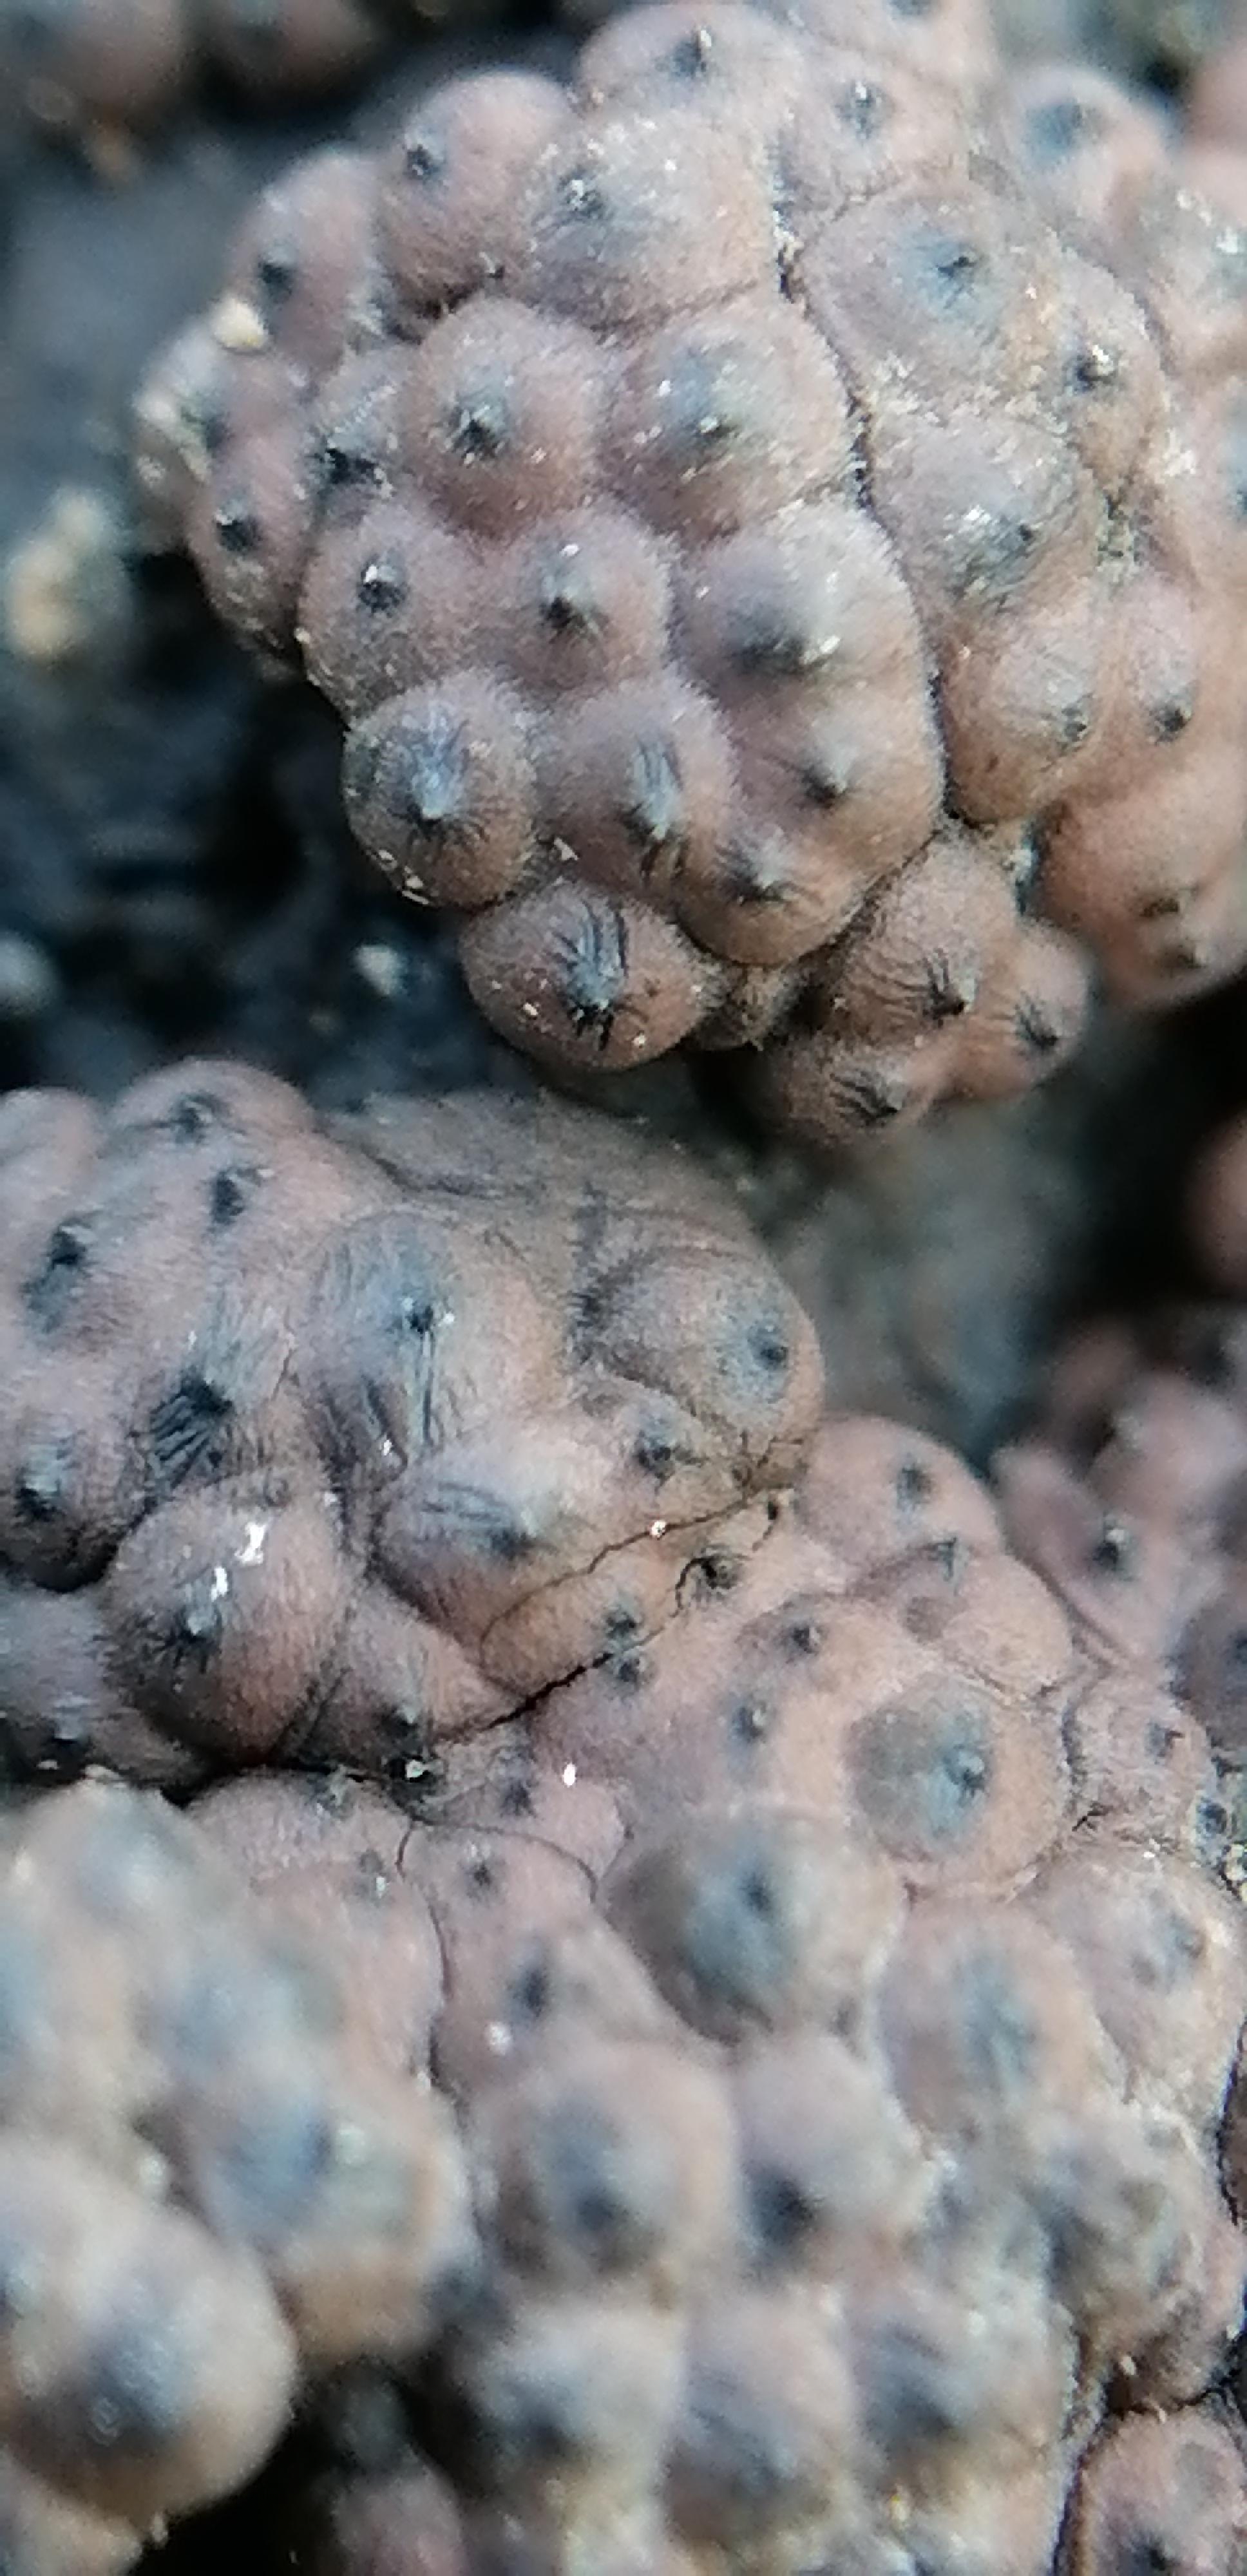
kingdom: Fungi
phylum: Ascomycota
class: Sordariomycetes
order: Xylariales
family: Hypoxylaceae
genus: Jackrogersella
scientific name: Jackrogersella multiformis
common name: foranderlig kulbær
